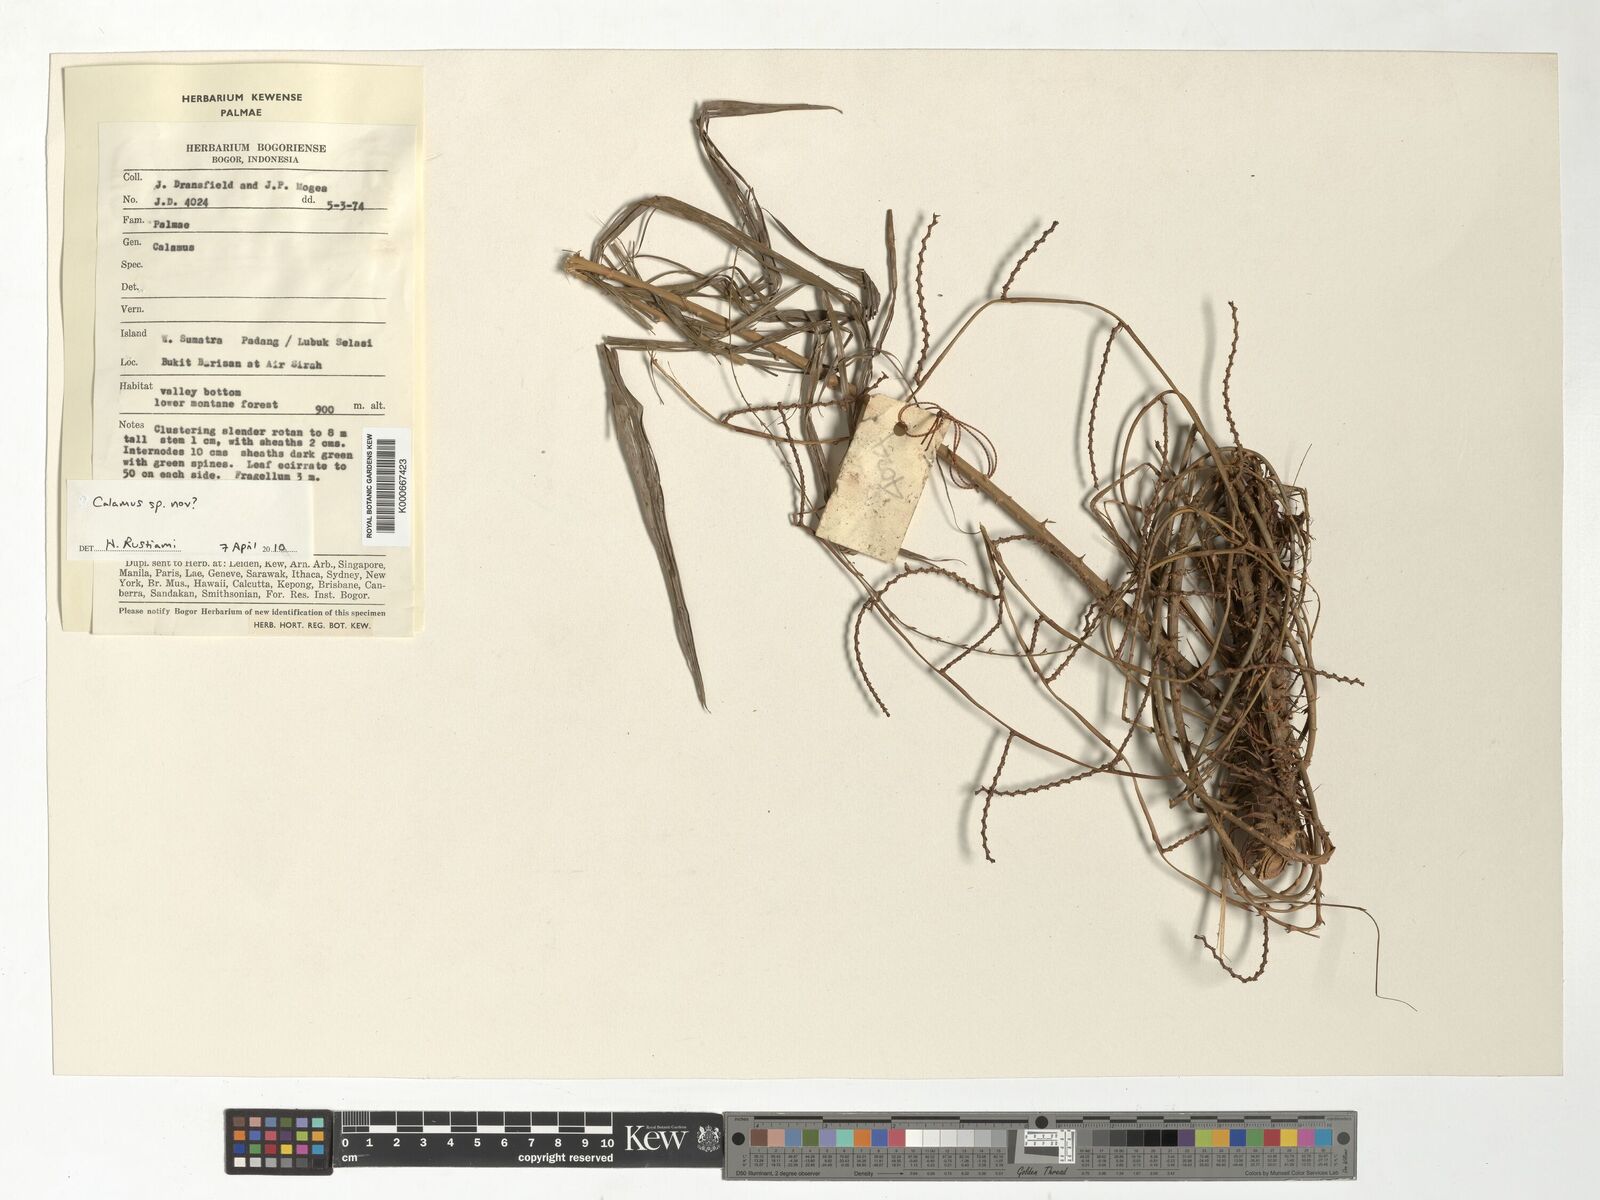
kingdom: Plantae
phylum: Tracheophyta
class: Liliopsida
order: Arecales
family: Arecaceae
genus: Calamus
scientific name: Calamus
